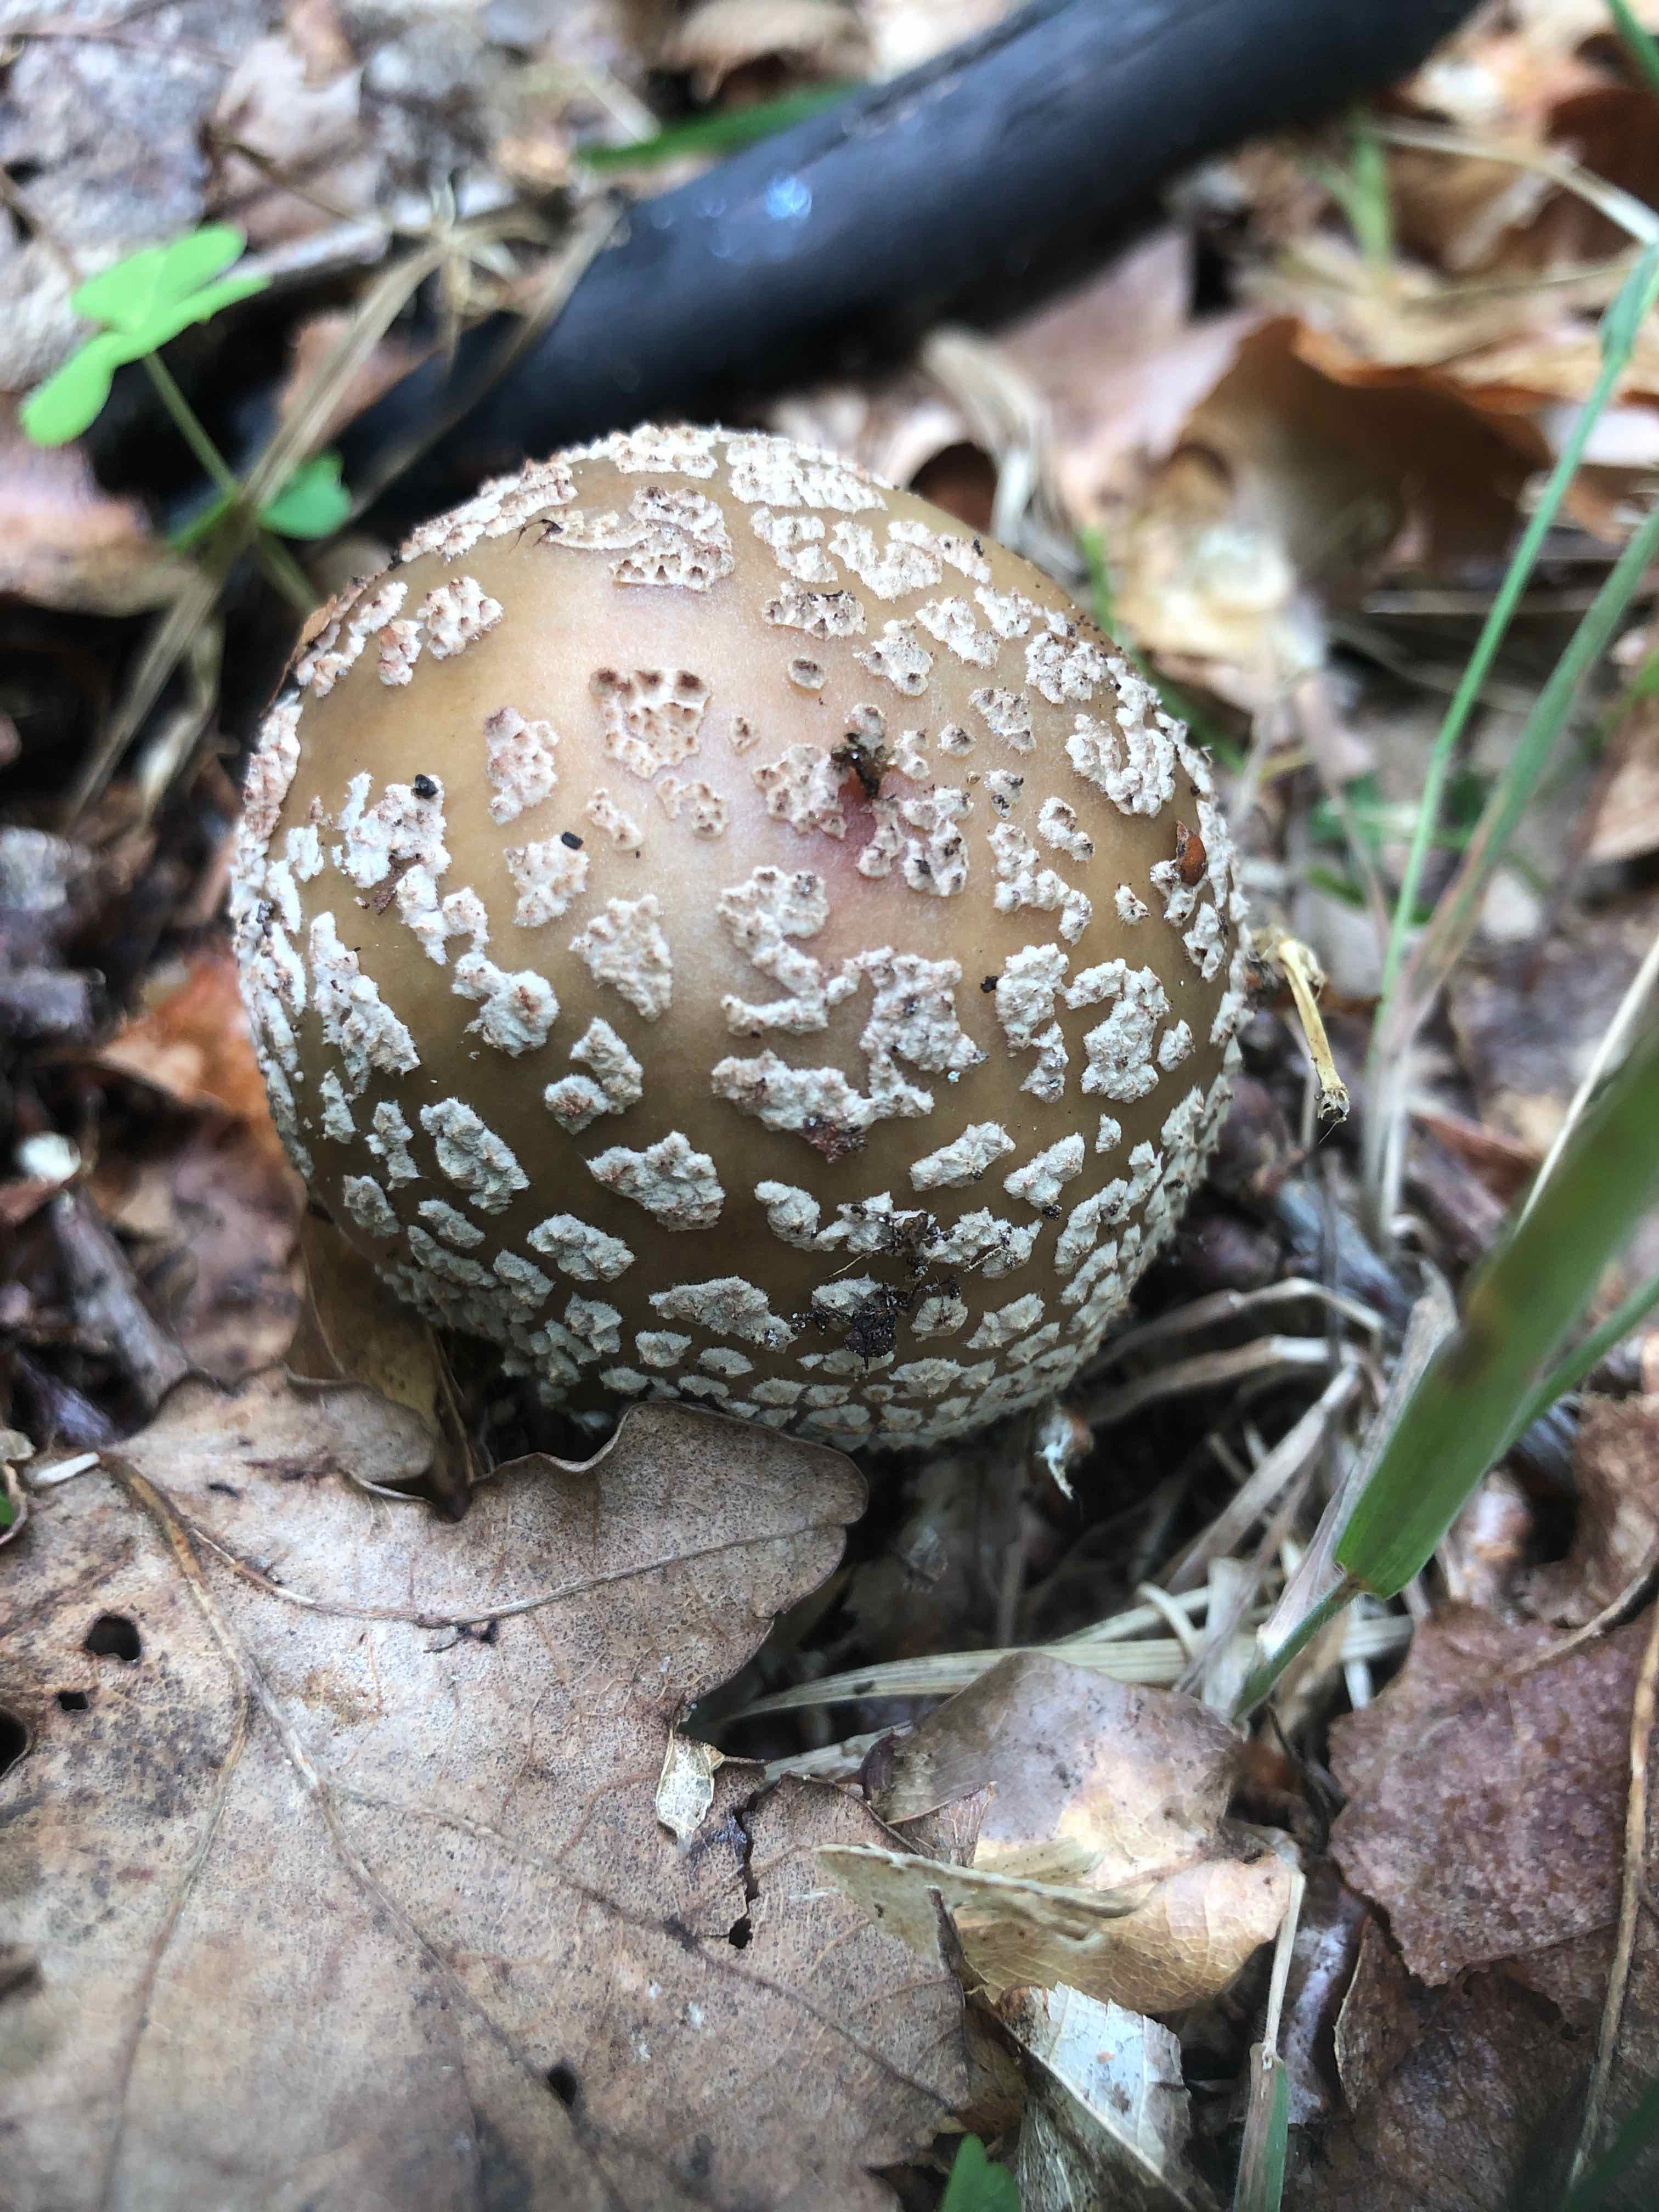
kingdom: Fungi
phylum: Basidiomycota
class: Agaricomycetes
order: Agaricales
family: Amanitaceae
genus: Amanita
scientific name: Amanita rubescens
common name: rødmende fluesvamp
